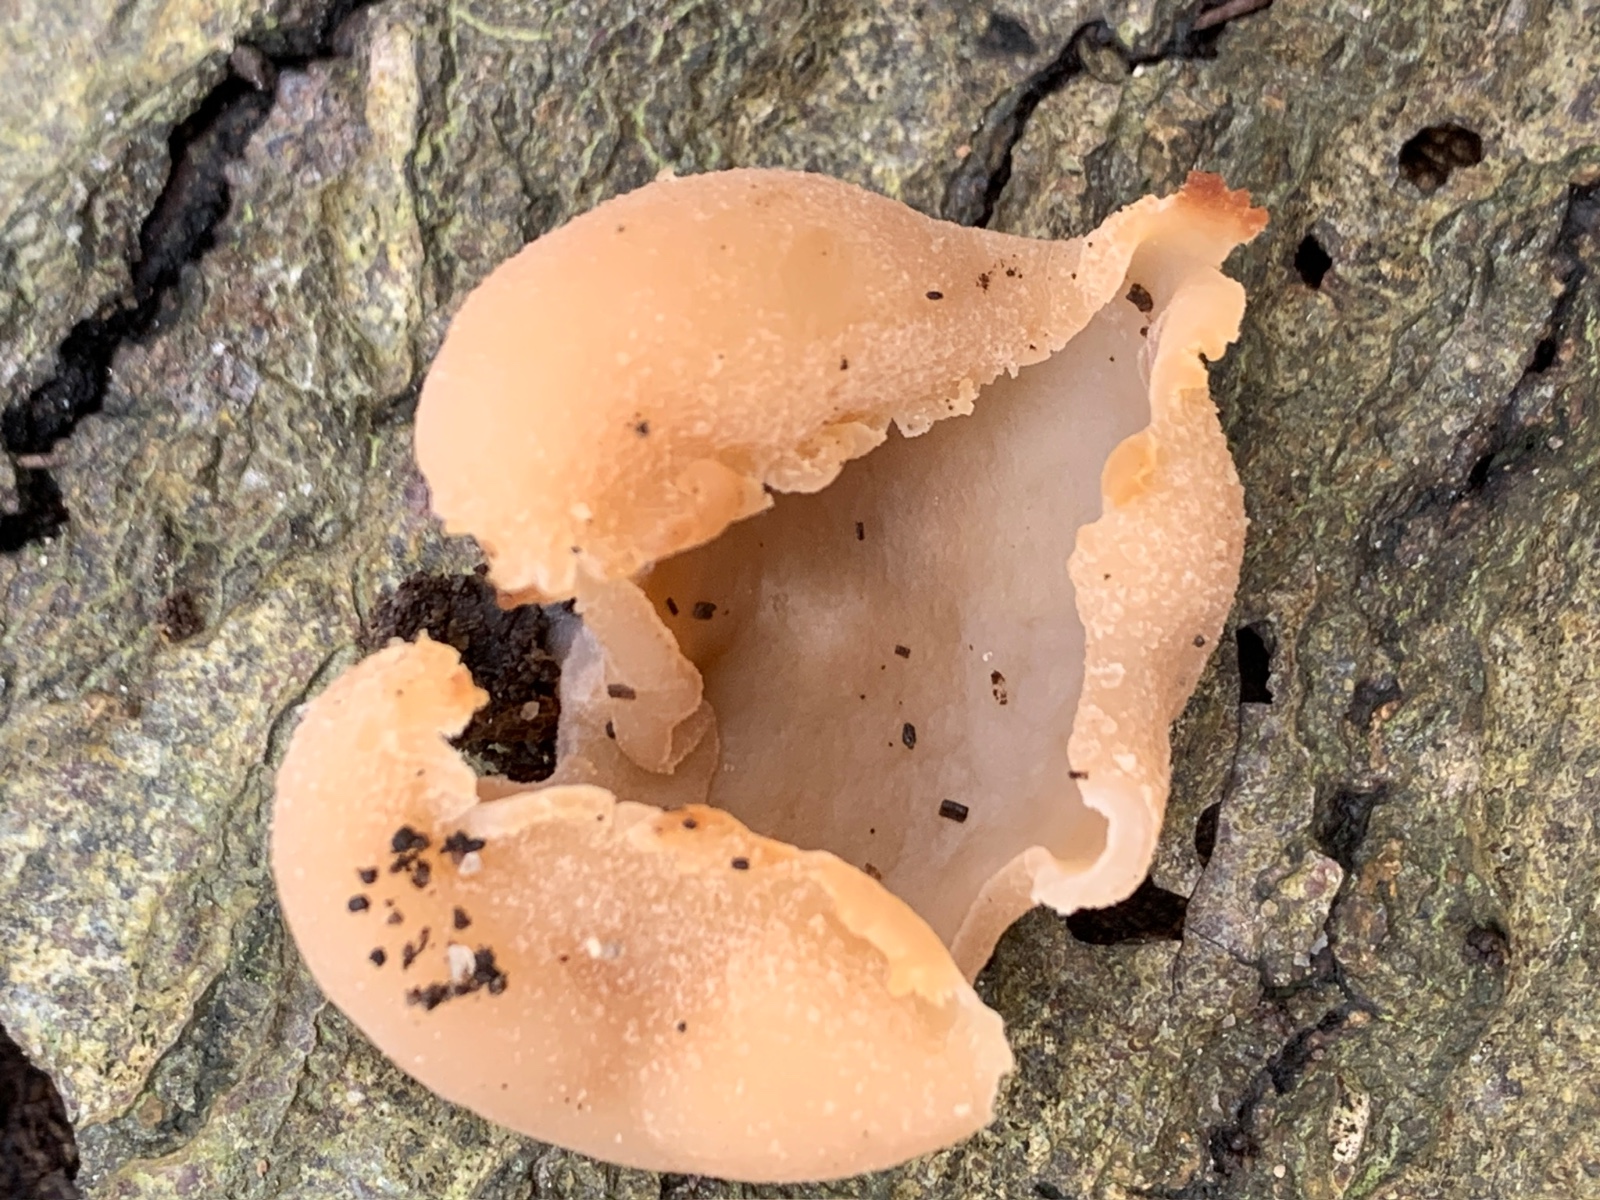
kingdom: Fungi
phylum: Ascomycota
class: Pezizomycetes
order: Pezizales
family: Pezizaceae
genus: Peziza
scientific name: Peziza varia
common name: Ved-bægersvamp
